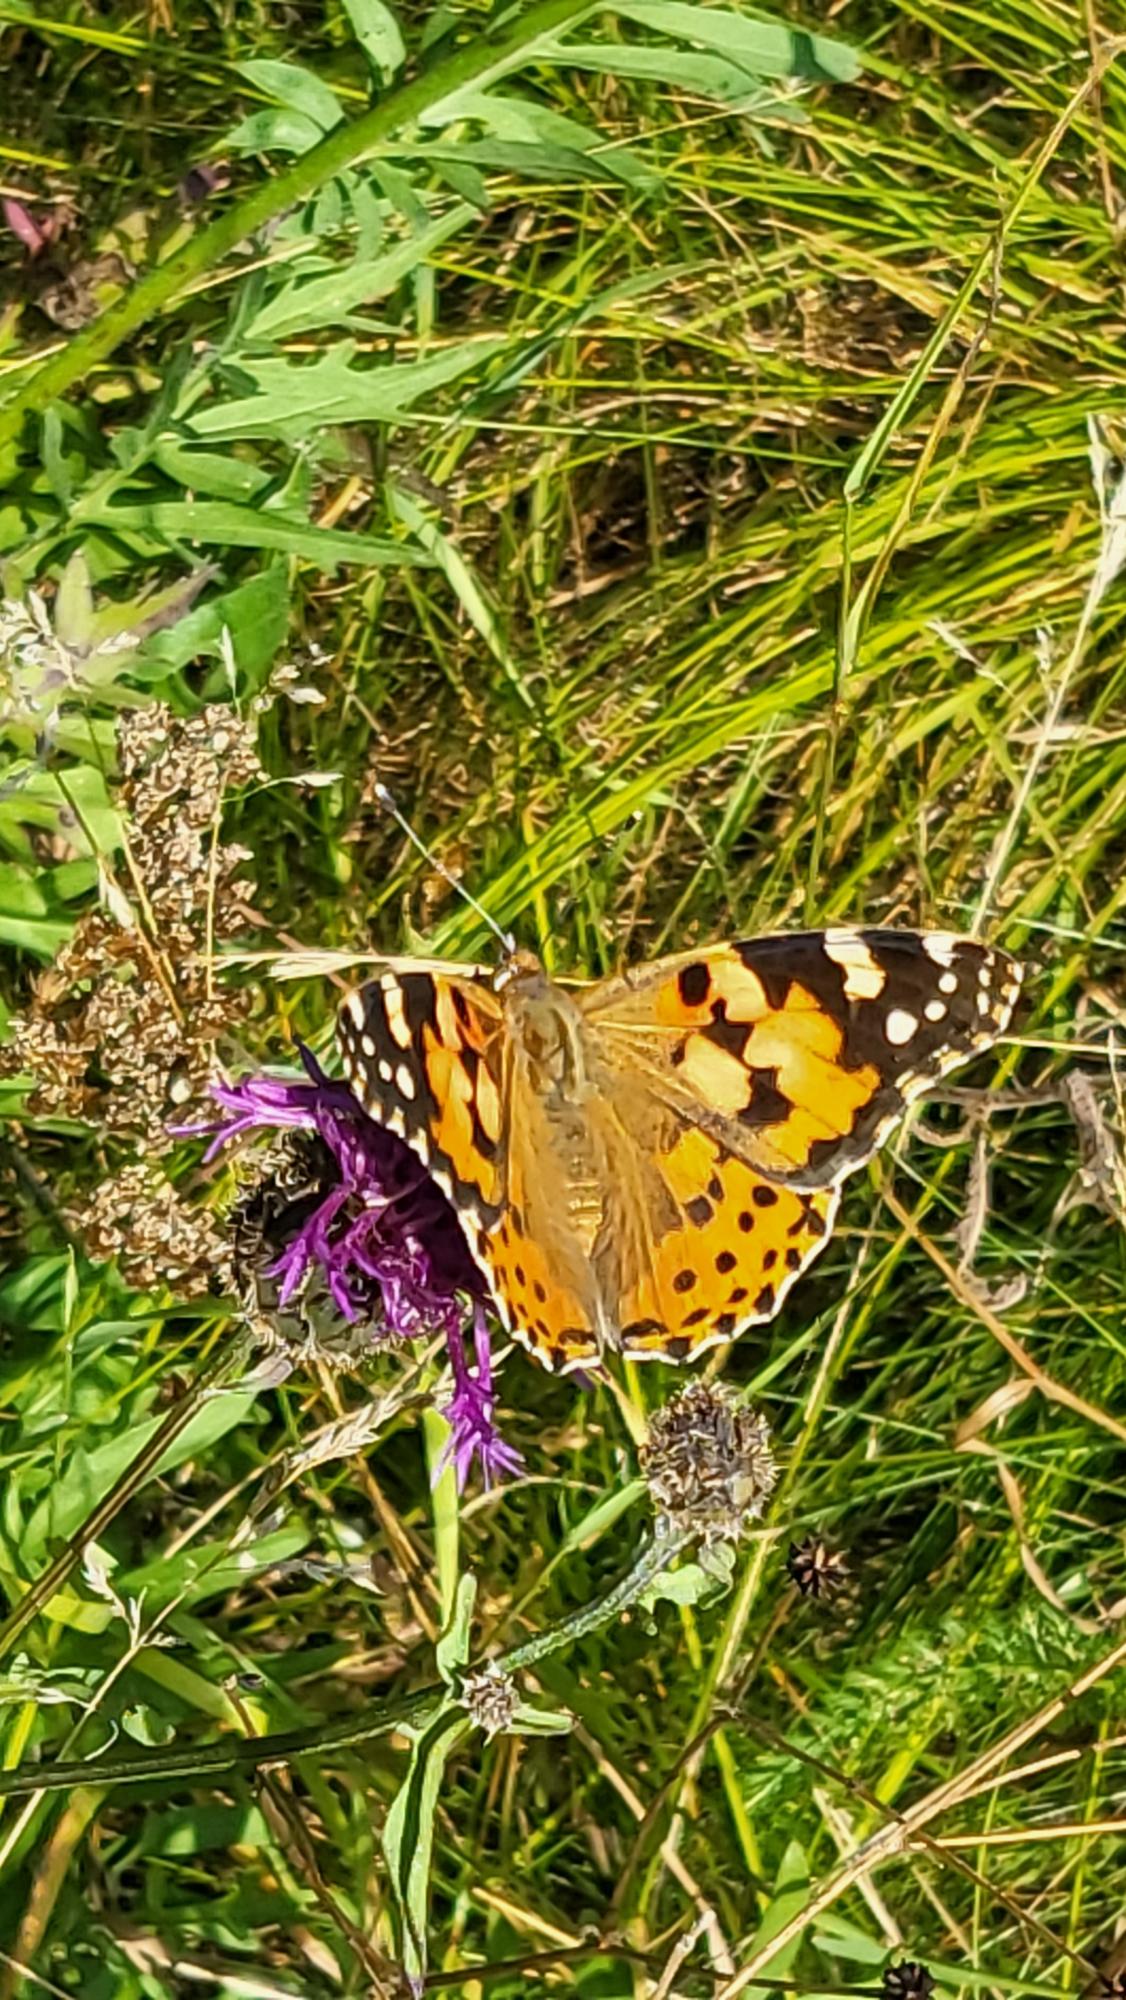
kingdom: Animalia
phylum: Arthropoda
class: Insecta
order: Lepidoptera
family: Nymphalidae
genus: Vanessa
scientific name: Vanessa cardui
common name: Tidselsommerfugl
